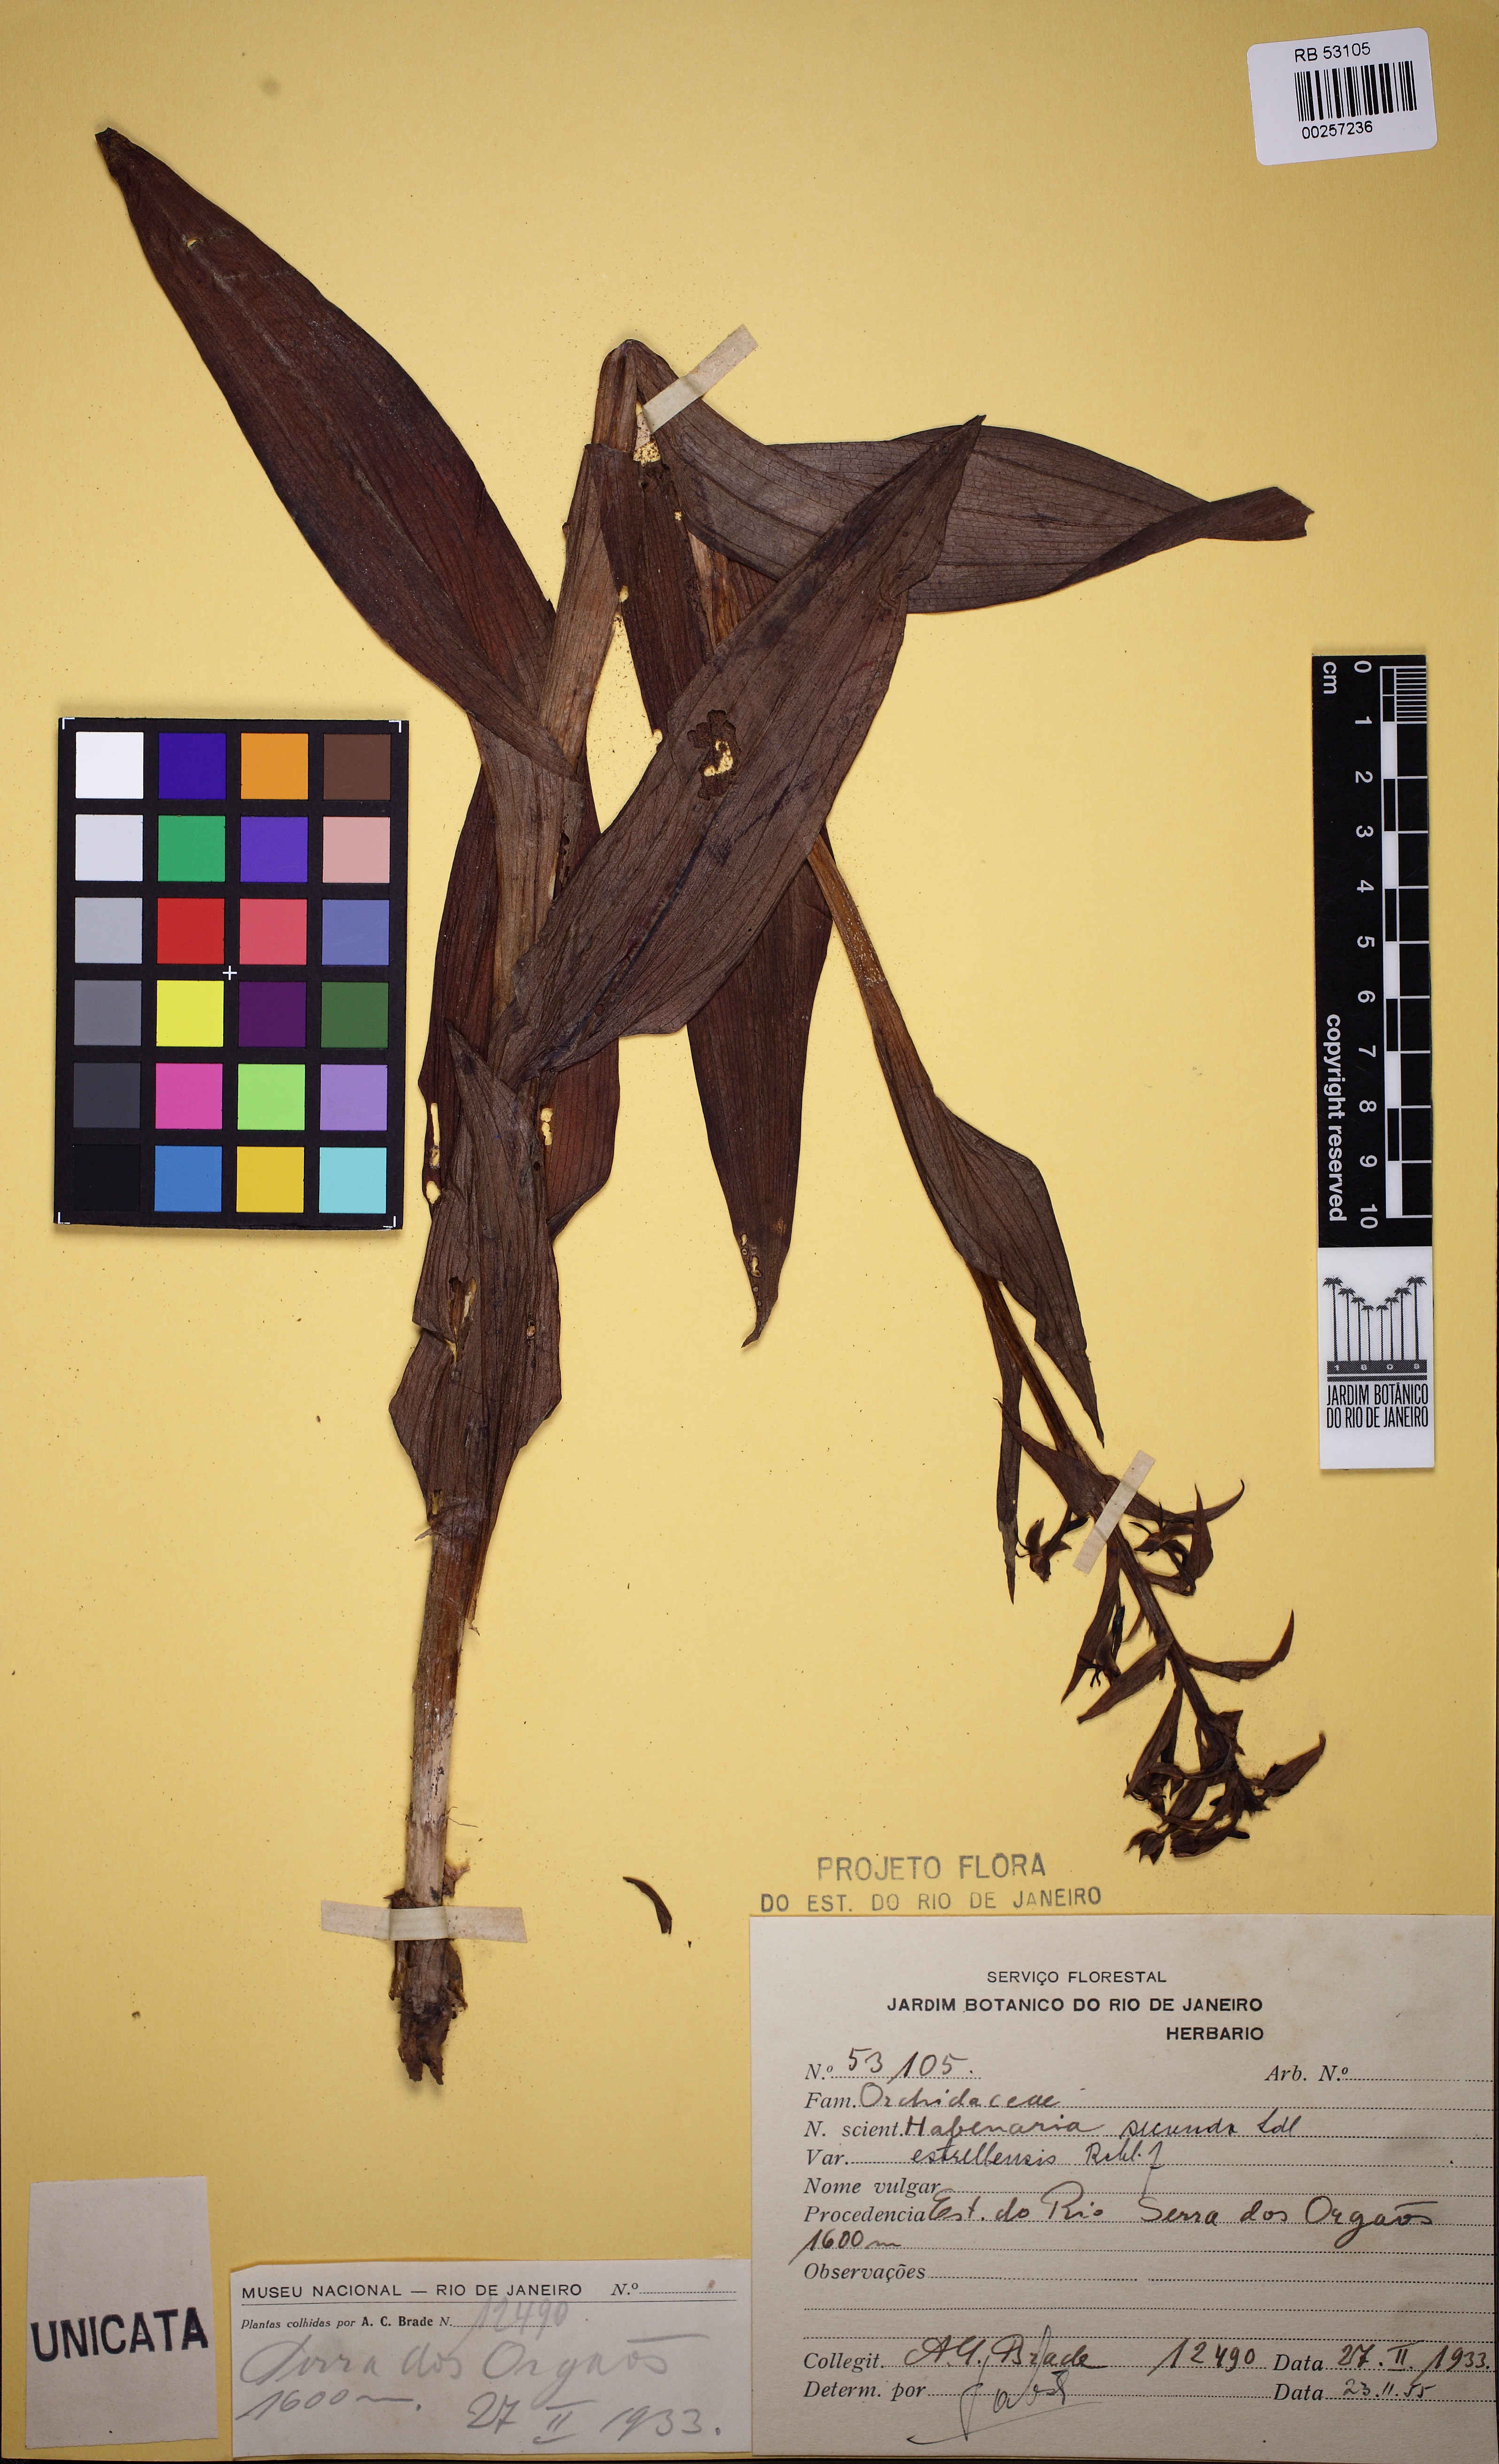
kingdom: Plantae
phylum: Tracheophyta
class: Liliopsida
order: Asparagales
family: Orchidaceae
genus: Habenaria
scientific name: Habenaria secunda
